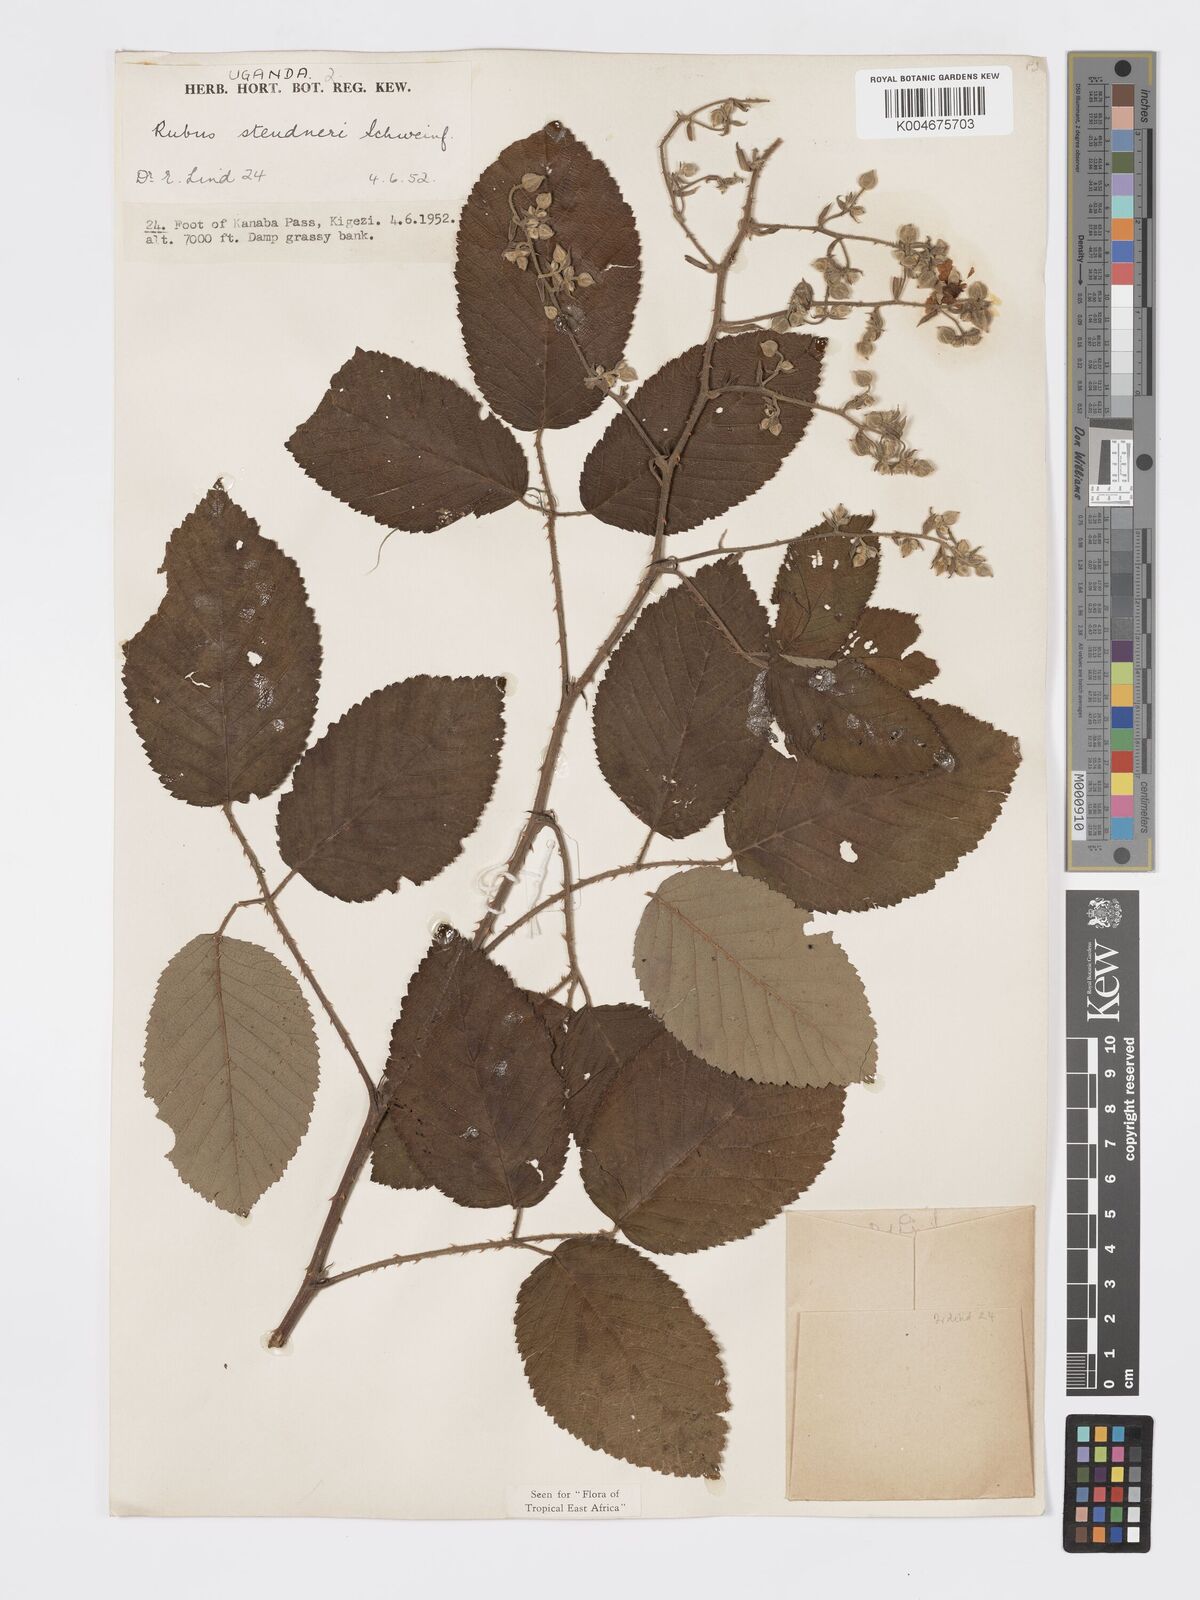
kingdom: Plantae
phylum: Tracheophyta
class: Magnoliopsida
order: Rosales
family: Rosaceae
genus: Rubus
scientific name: Rubus steudneri
